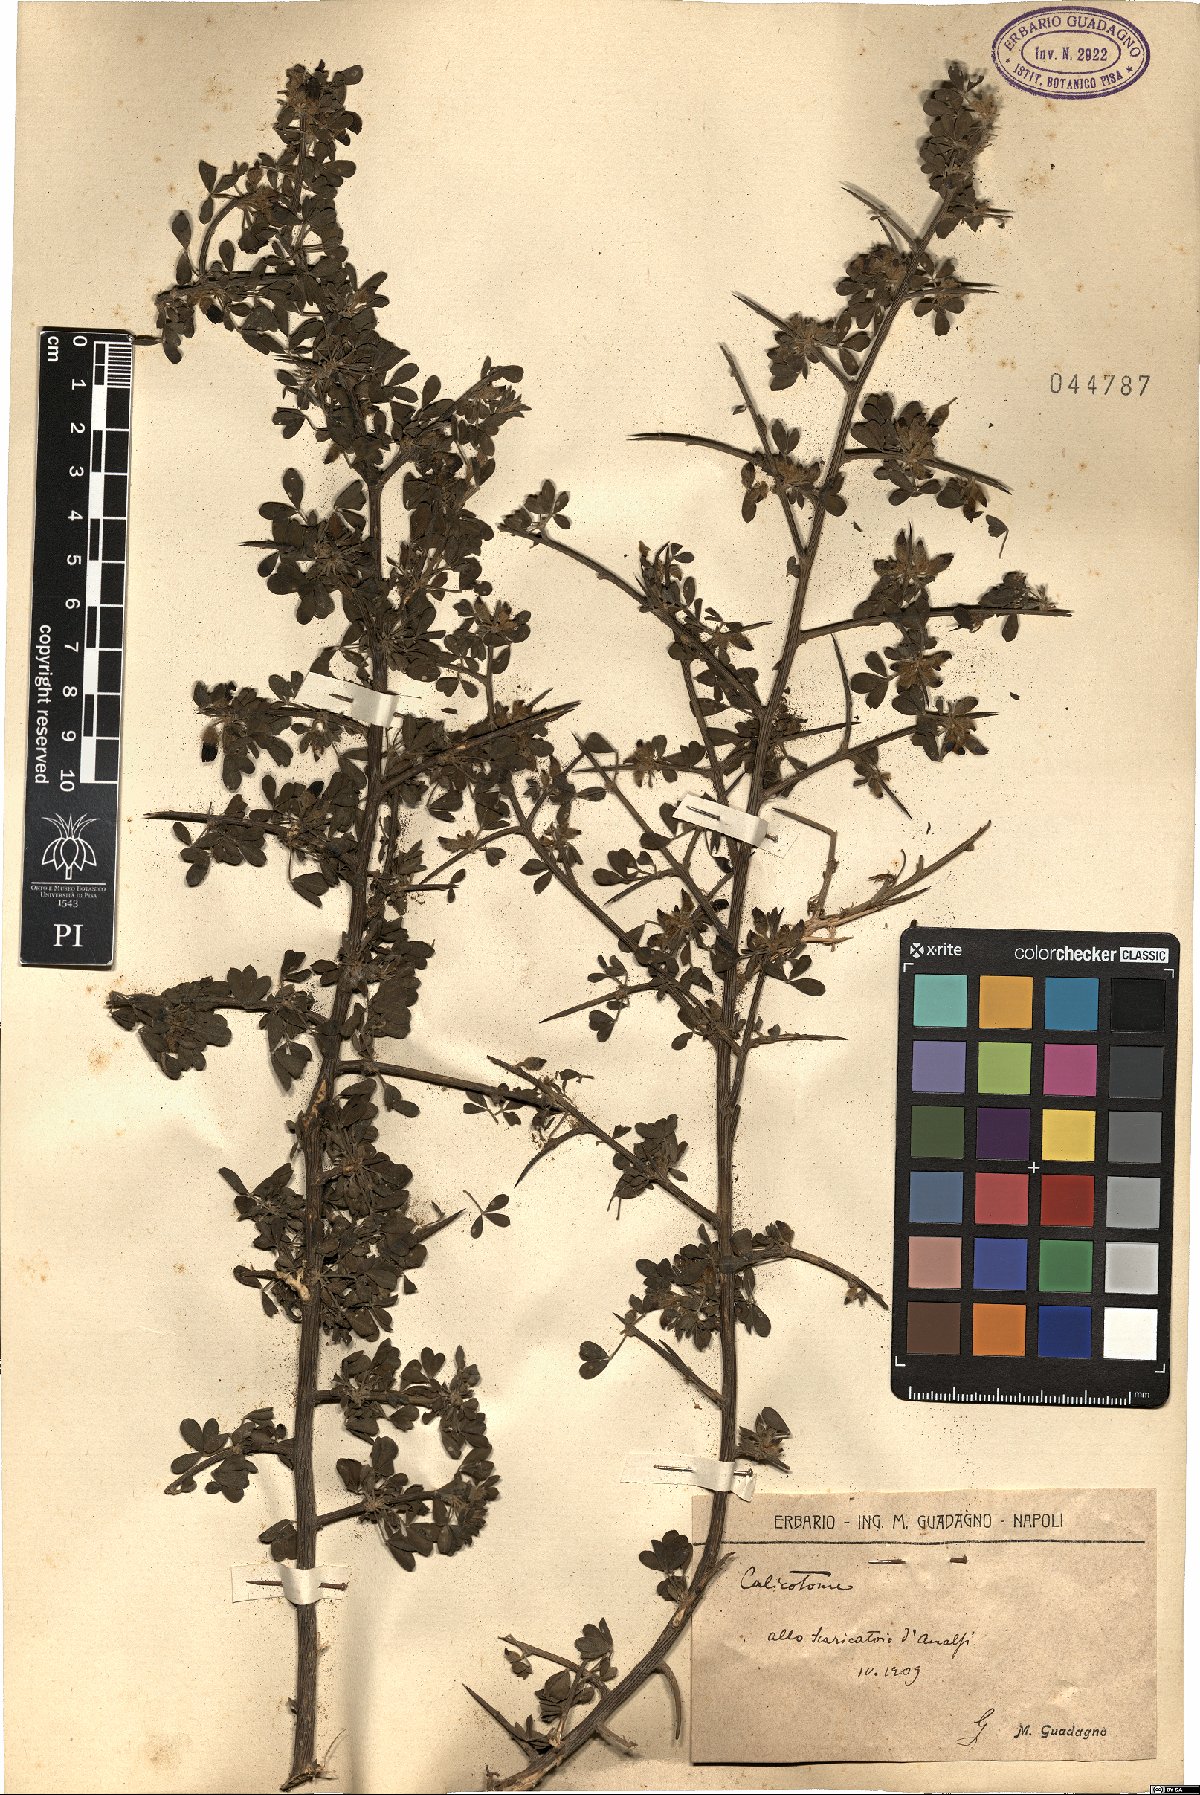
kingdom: Plantae
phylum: Tracheophyta
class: Magnoliopsida
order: Fabales
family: Fabaceae
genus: Calicotome
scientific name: Calicotome
